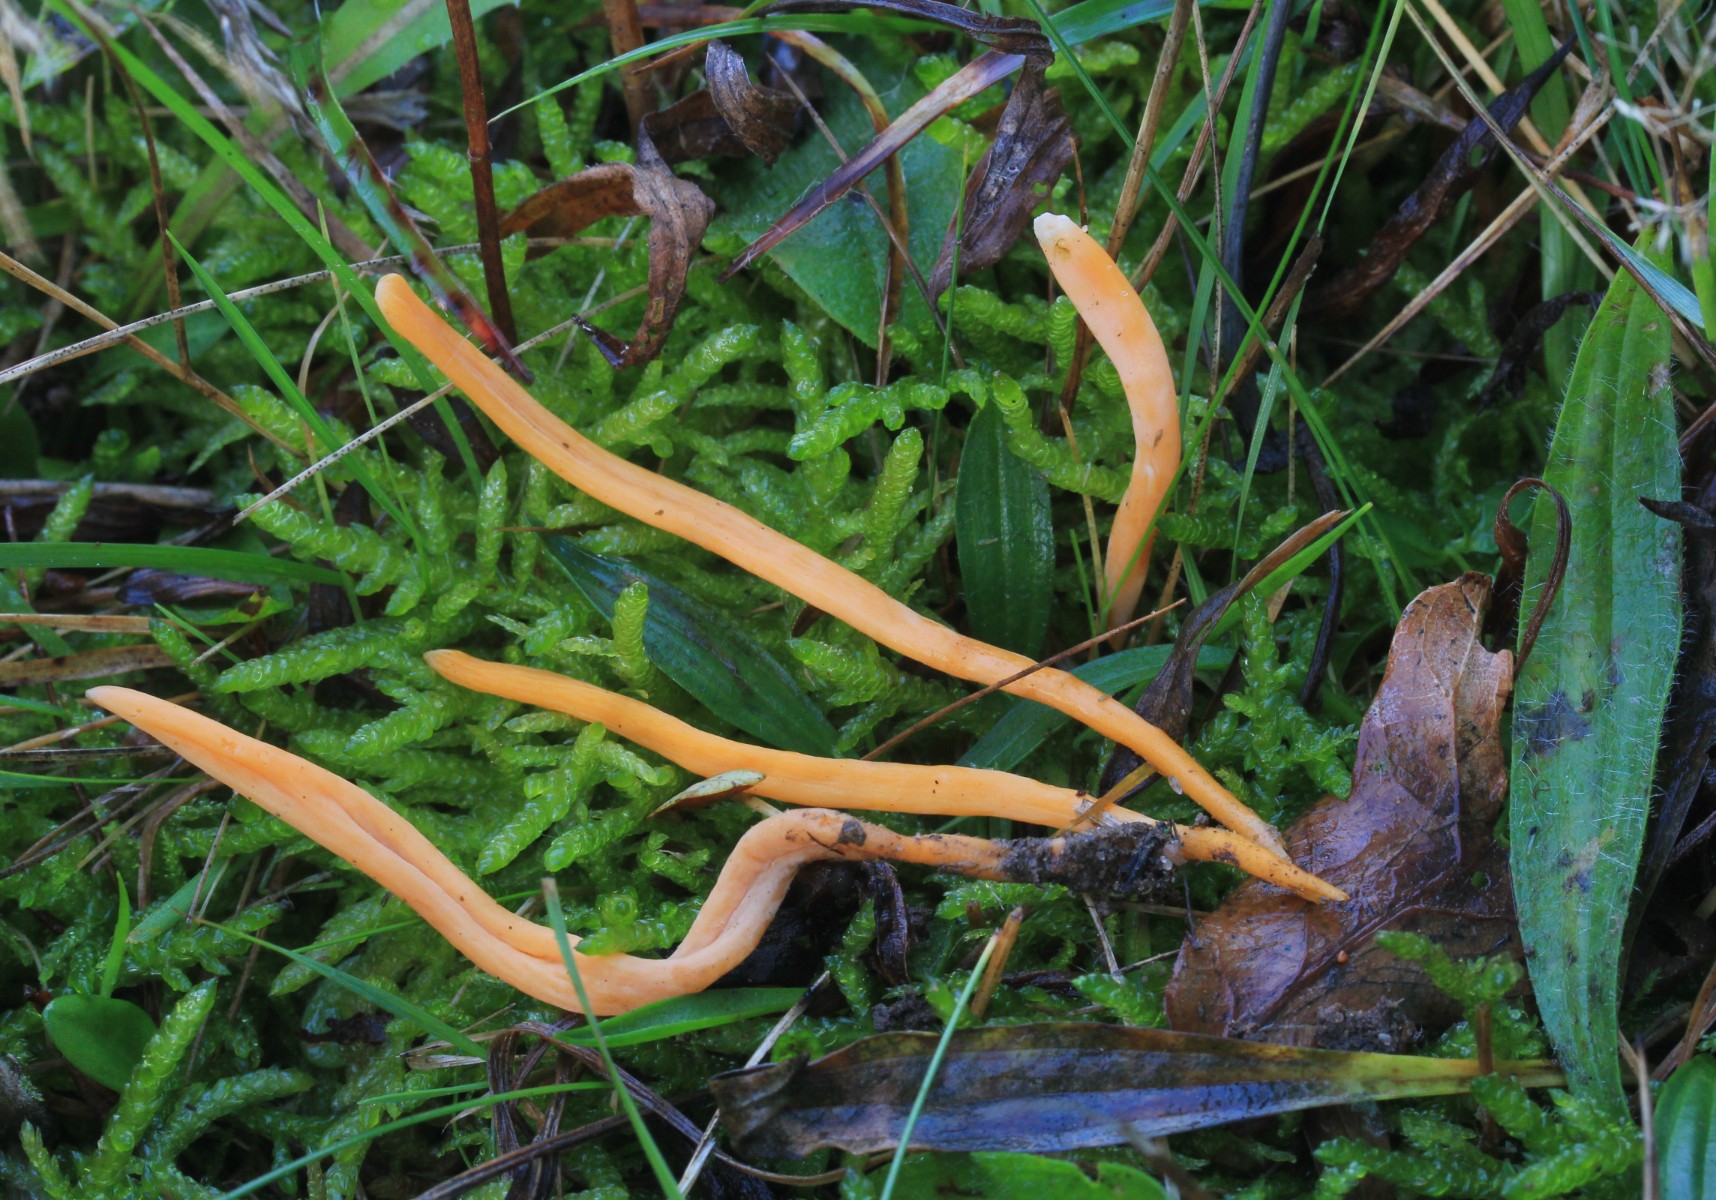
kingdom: Fungi
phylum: Basidiomycota
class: Agaricomycetes
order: Agaricales
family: Clavariaceae
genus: Clavulinopsis
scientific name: Clavulinopsis
